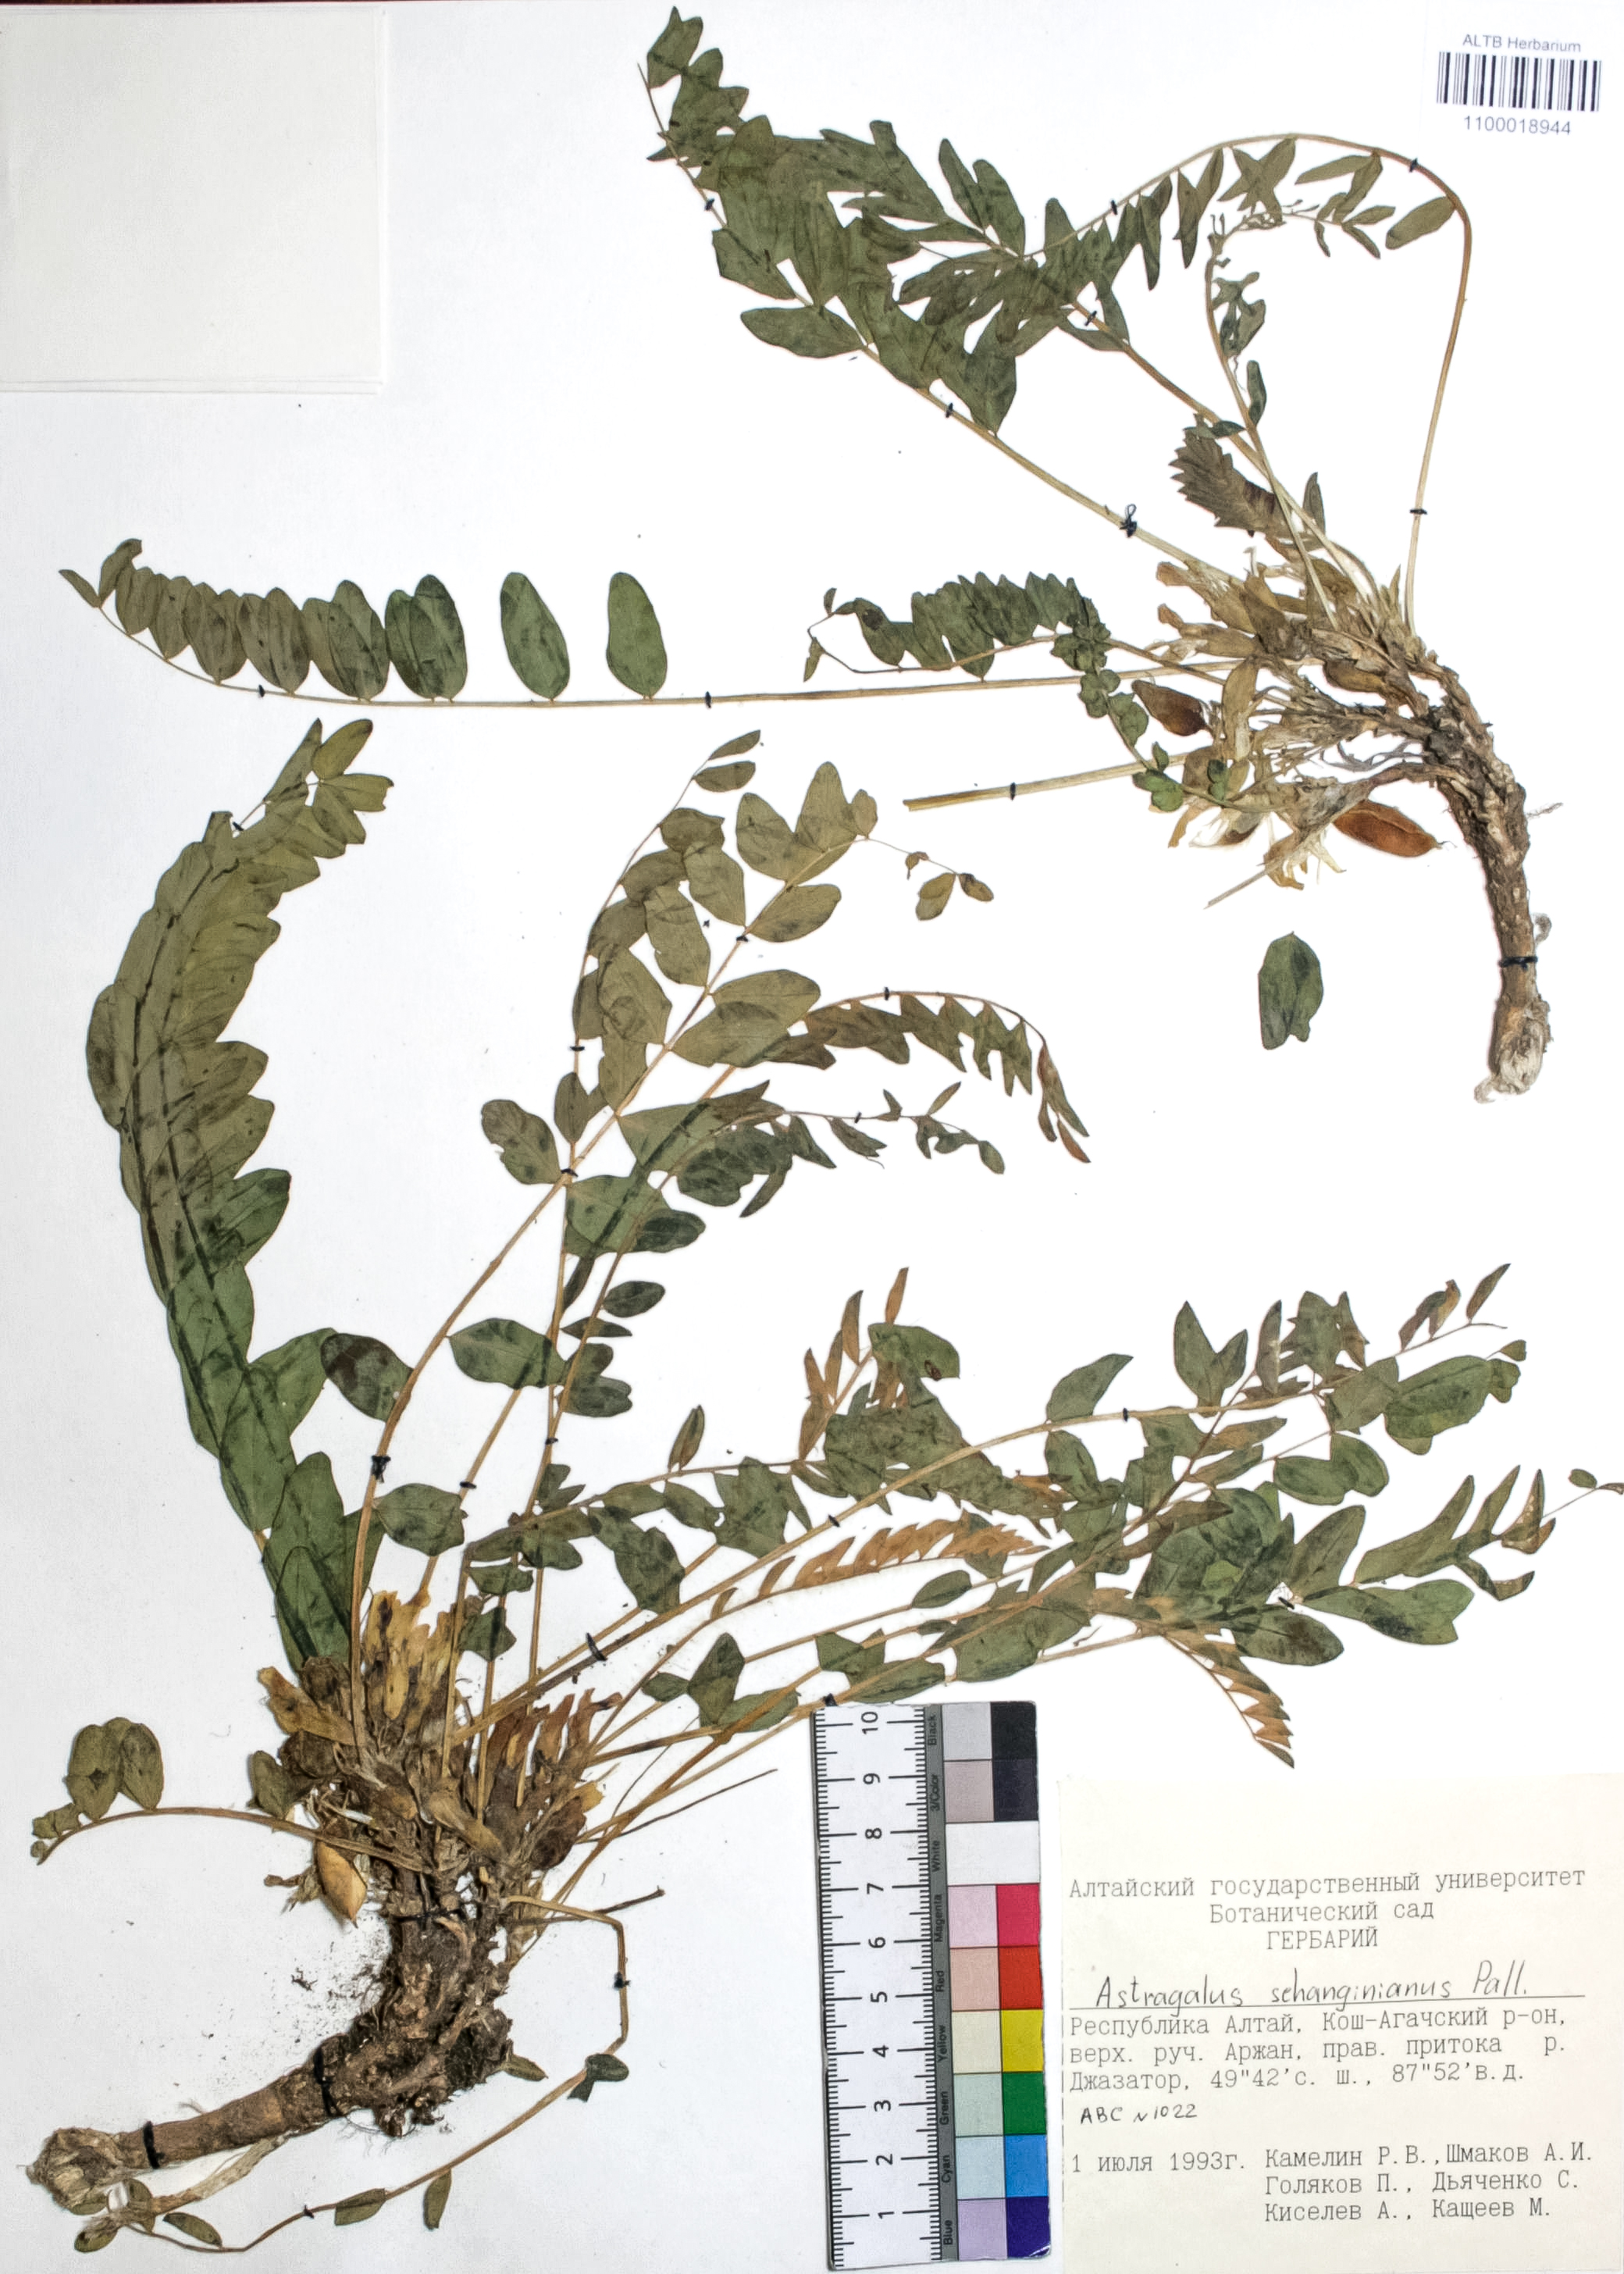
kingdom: Plantae
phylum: Tracheophyta
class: Magnoliopsida
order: Fabales
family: Fabaceae
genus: Astragalus
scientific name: Astragalus schanginianus
